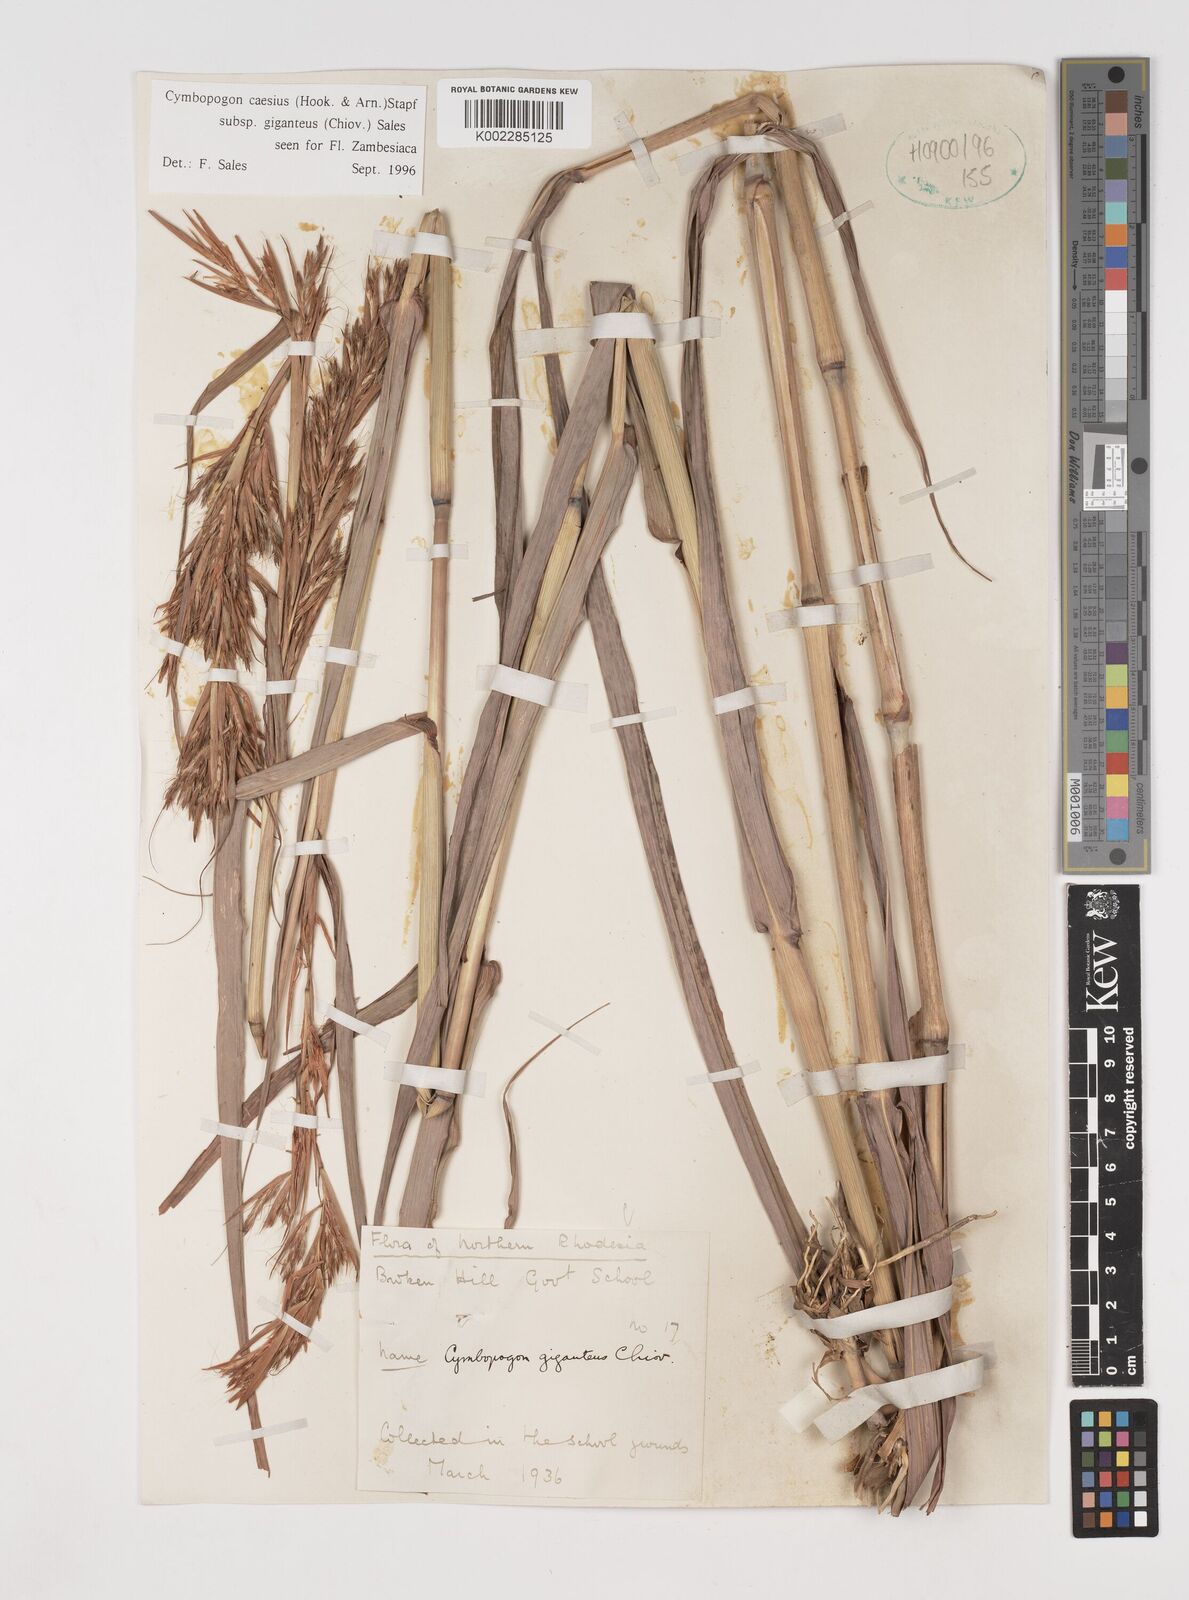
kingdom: Plantae
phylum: Tracheophyta
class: Liliopsida
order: Poales
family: Poaceae
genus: Cymbopogon
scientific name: Cymbopogon giganteus
